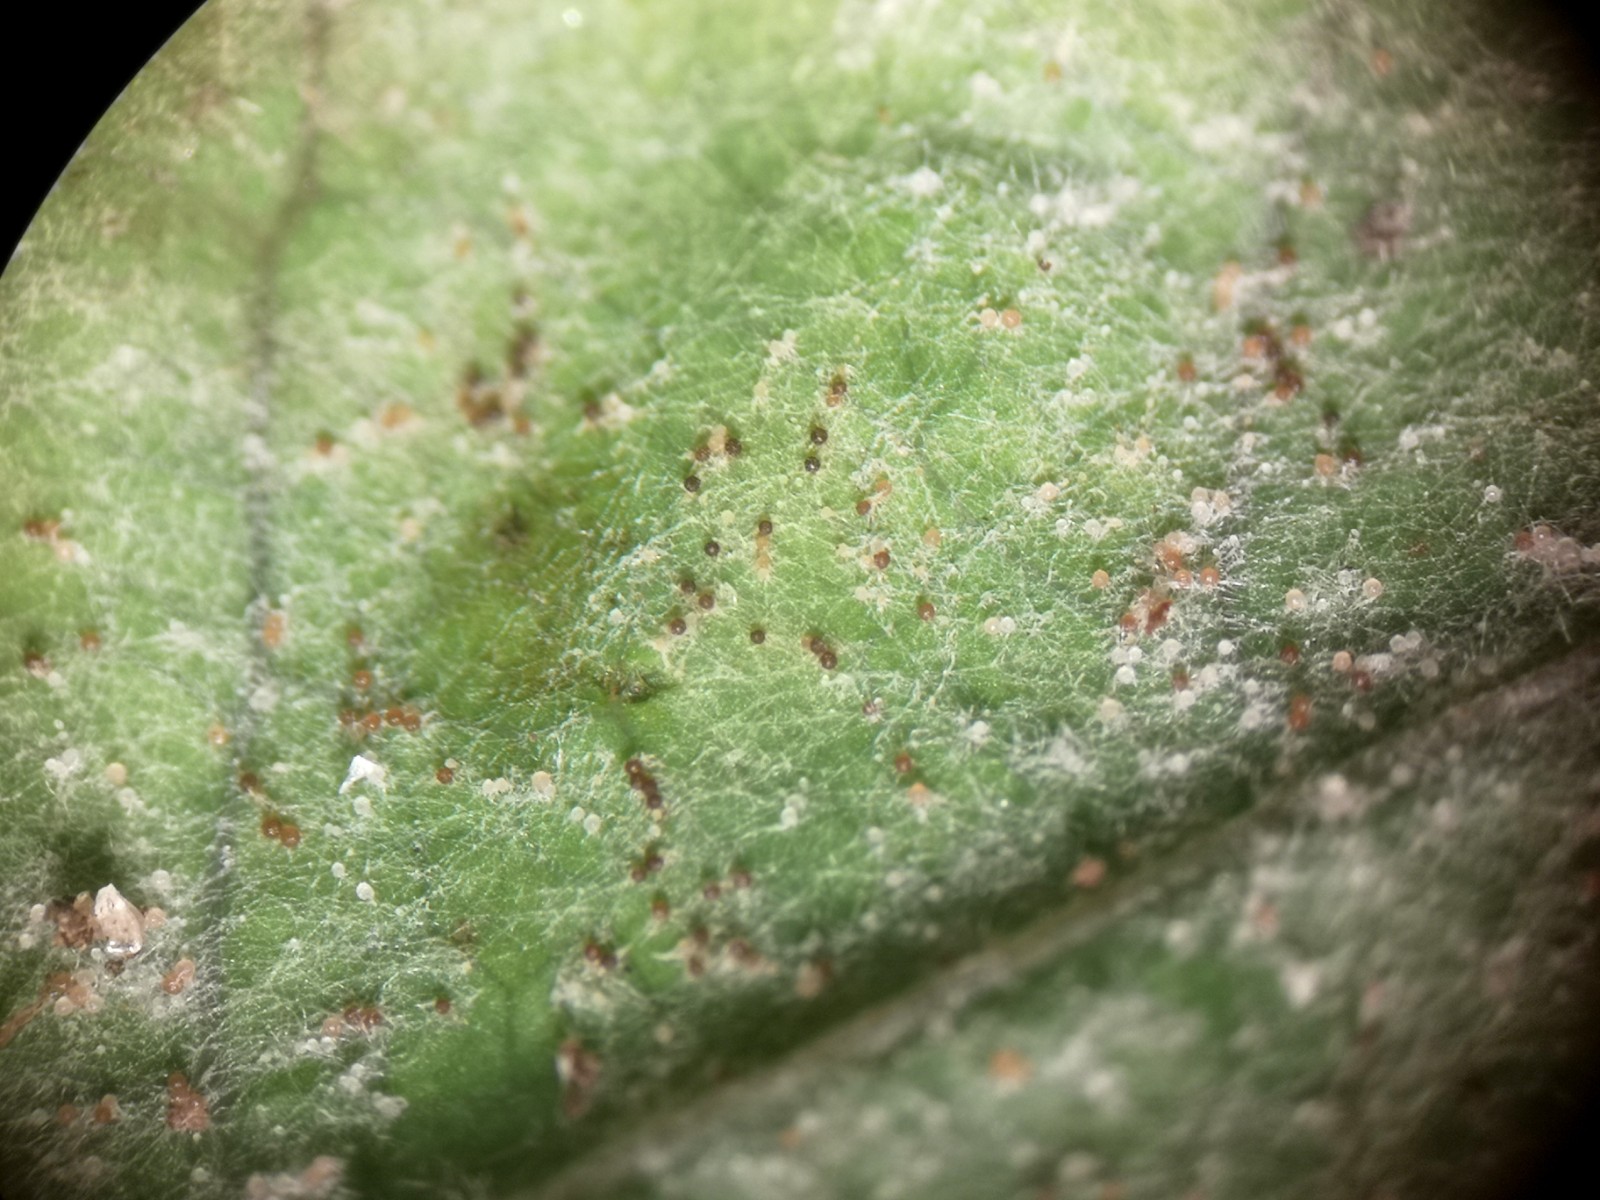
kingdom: Fungi
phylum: Ascomycota
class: Leotiomycetes
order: Helotiales
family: Erysiphaceae
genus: Podosphaera
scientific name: Podosphaera balsaminae
